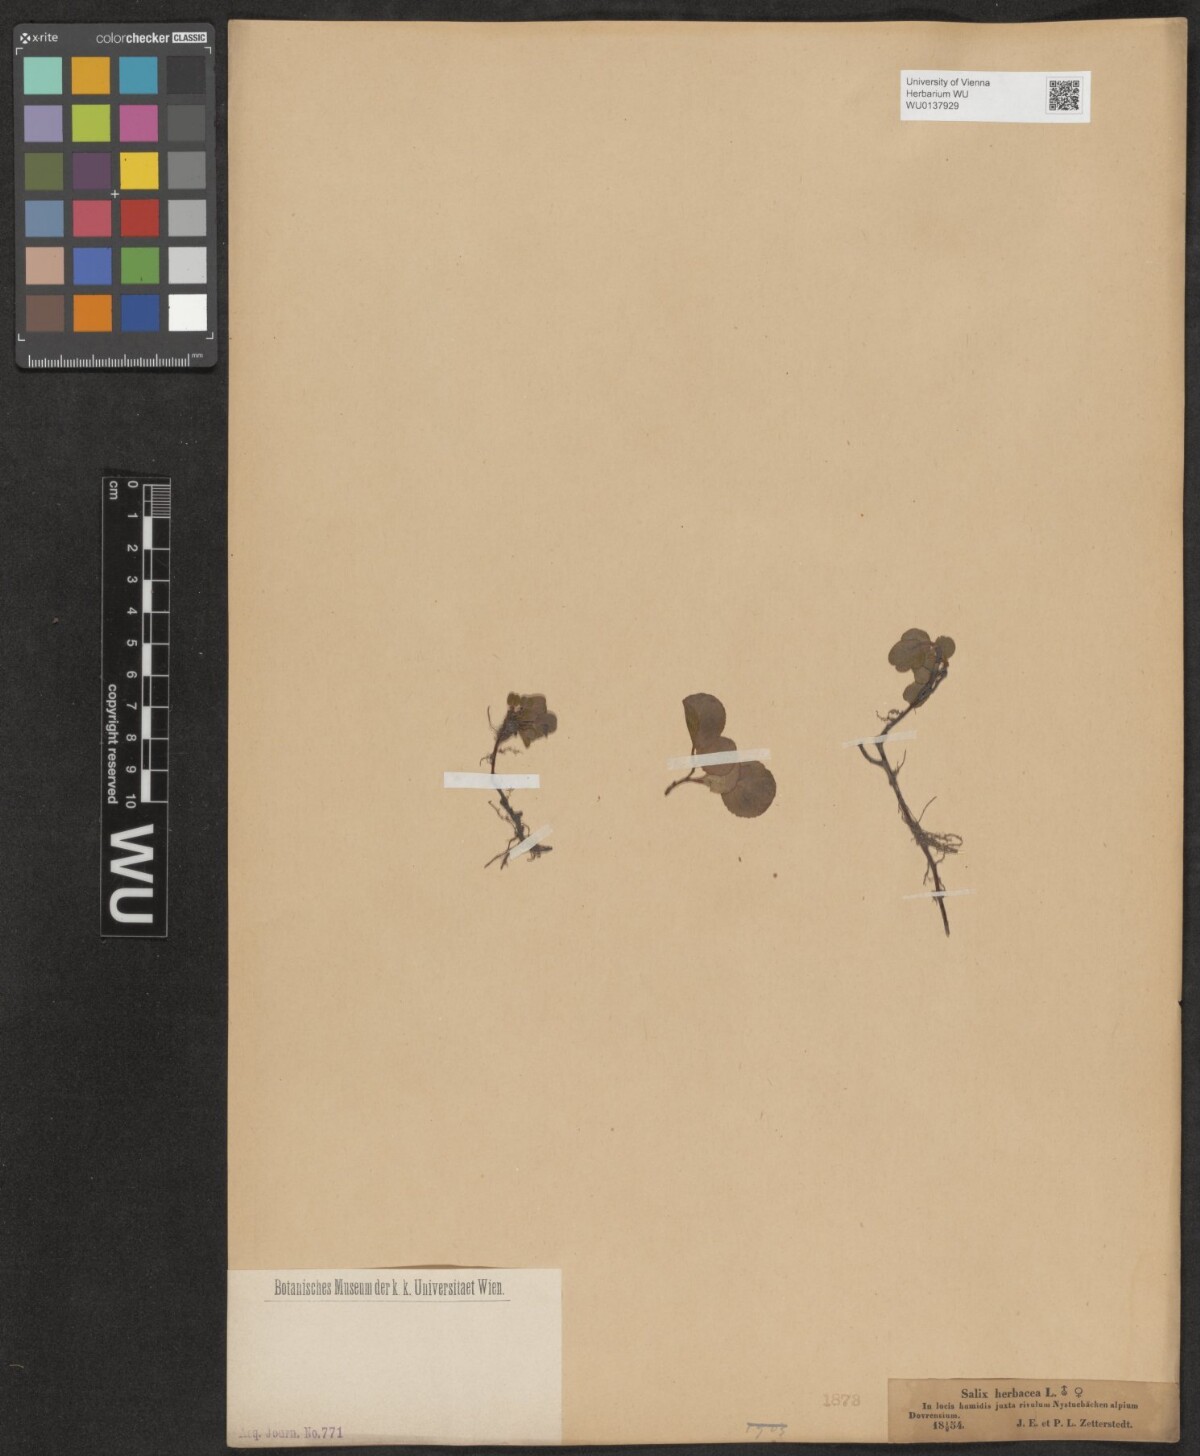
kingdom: Plantae
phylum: Tracheophyta
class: Magnoliopsida
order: Malpighiales
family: Salicaceae
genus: Salix
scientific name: Salix herbacea
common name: Dwarf willow
